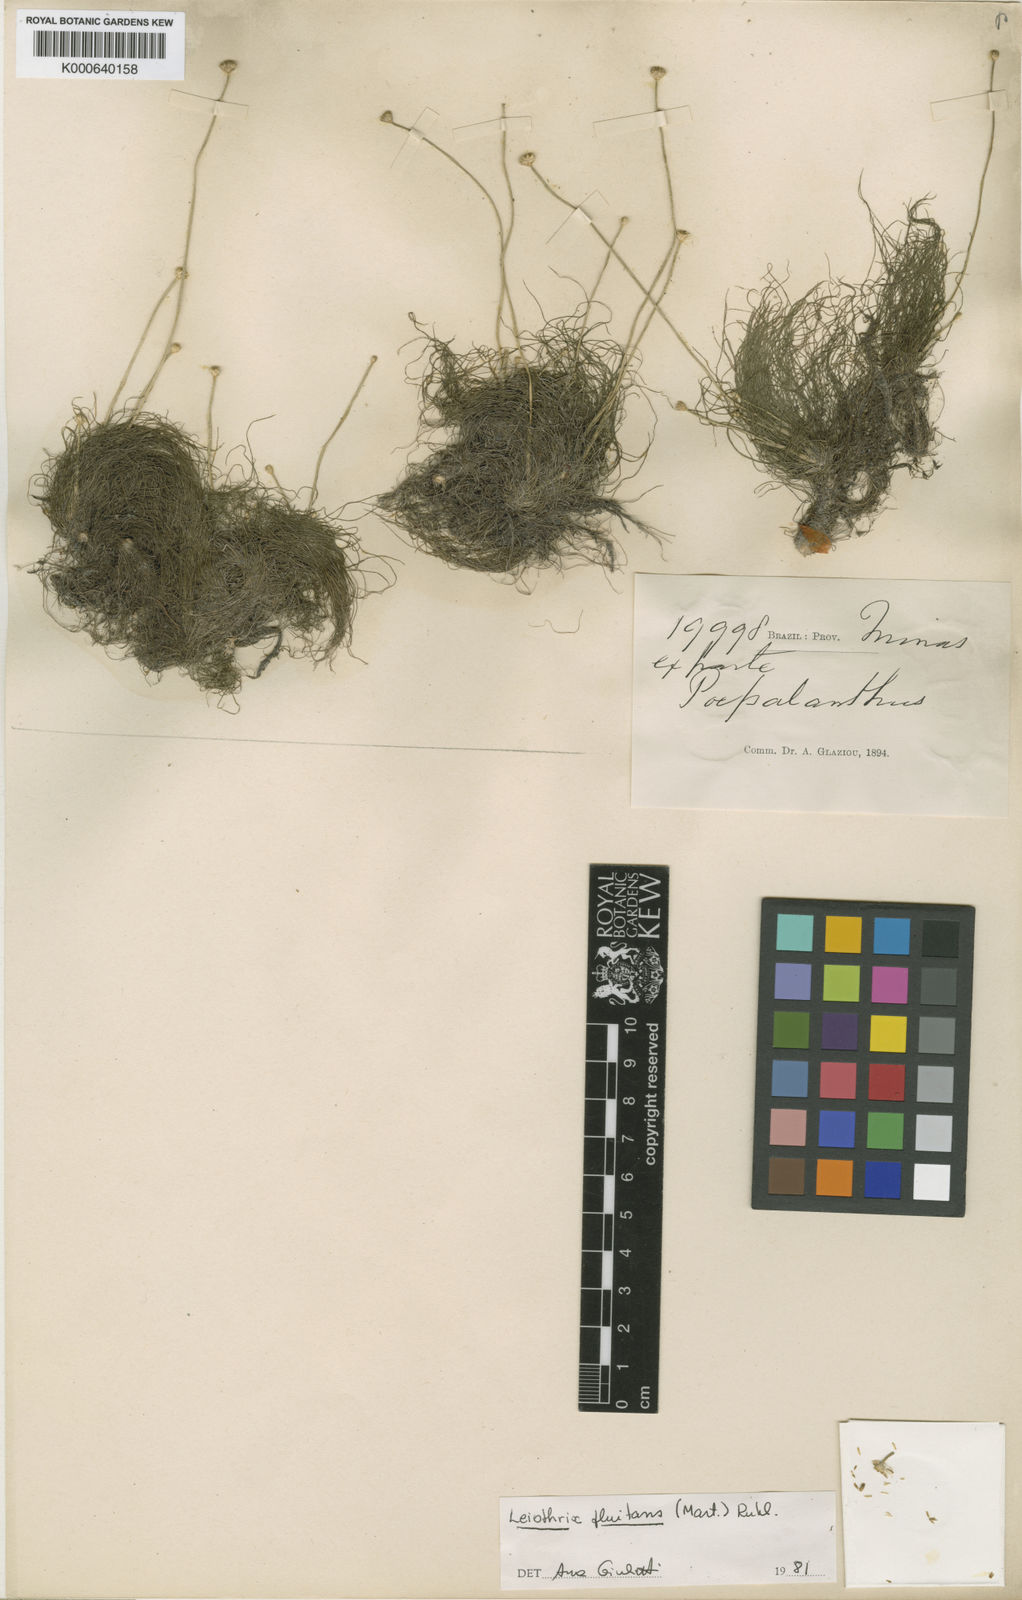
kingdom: Plantae
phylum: Tracheophyta
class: Liliopsida
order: Poales
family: Eriocaulaceae
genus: Leiothrix
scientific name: Leiothrix
